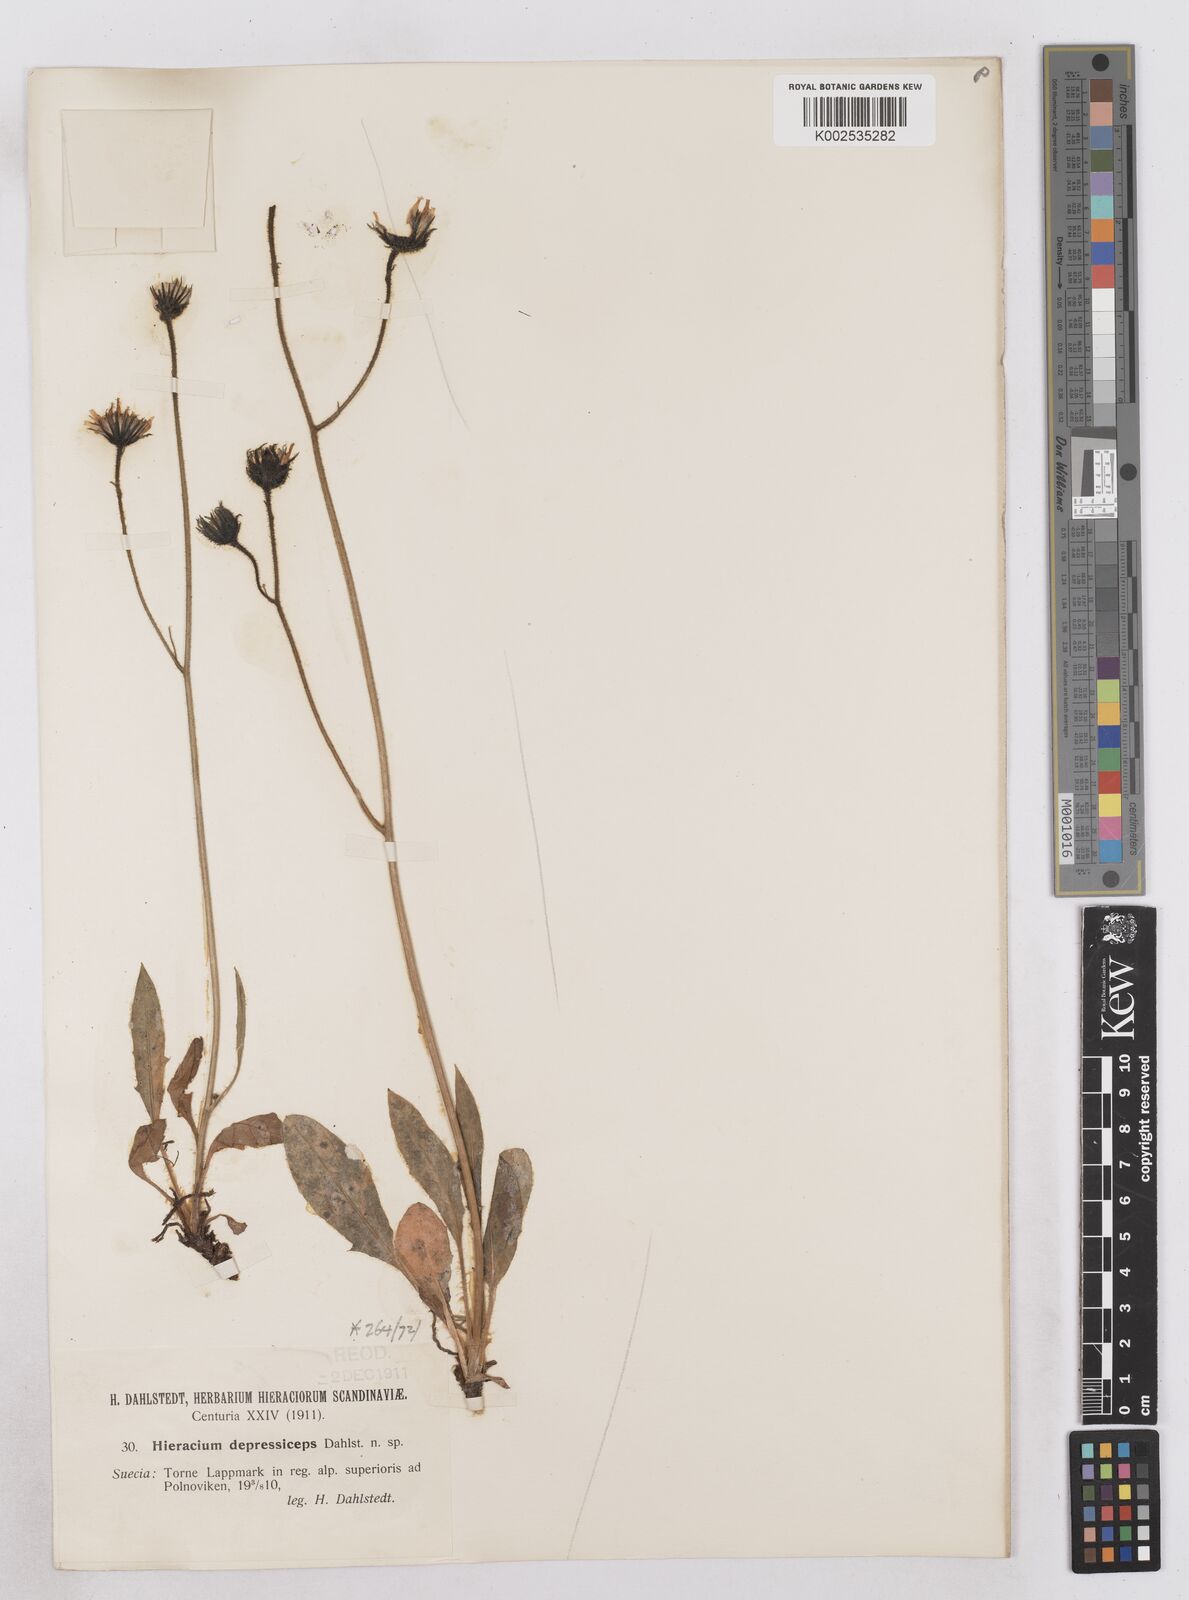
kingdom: Plantae
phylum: Tracheophyta
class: Magnoliopsida
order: Asterales
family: Asteraceae
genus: Hieracium
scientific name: Hieracium atratum
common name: Polar hawkweed
